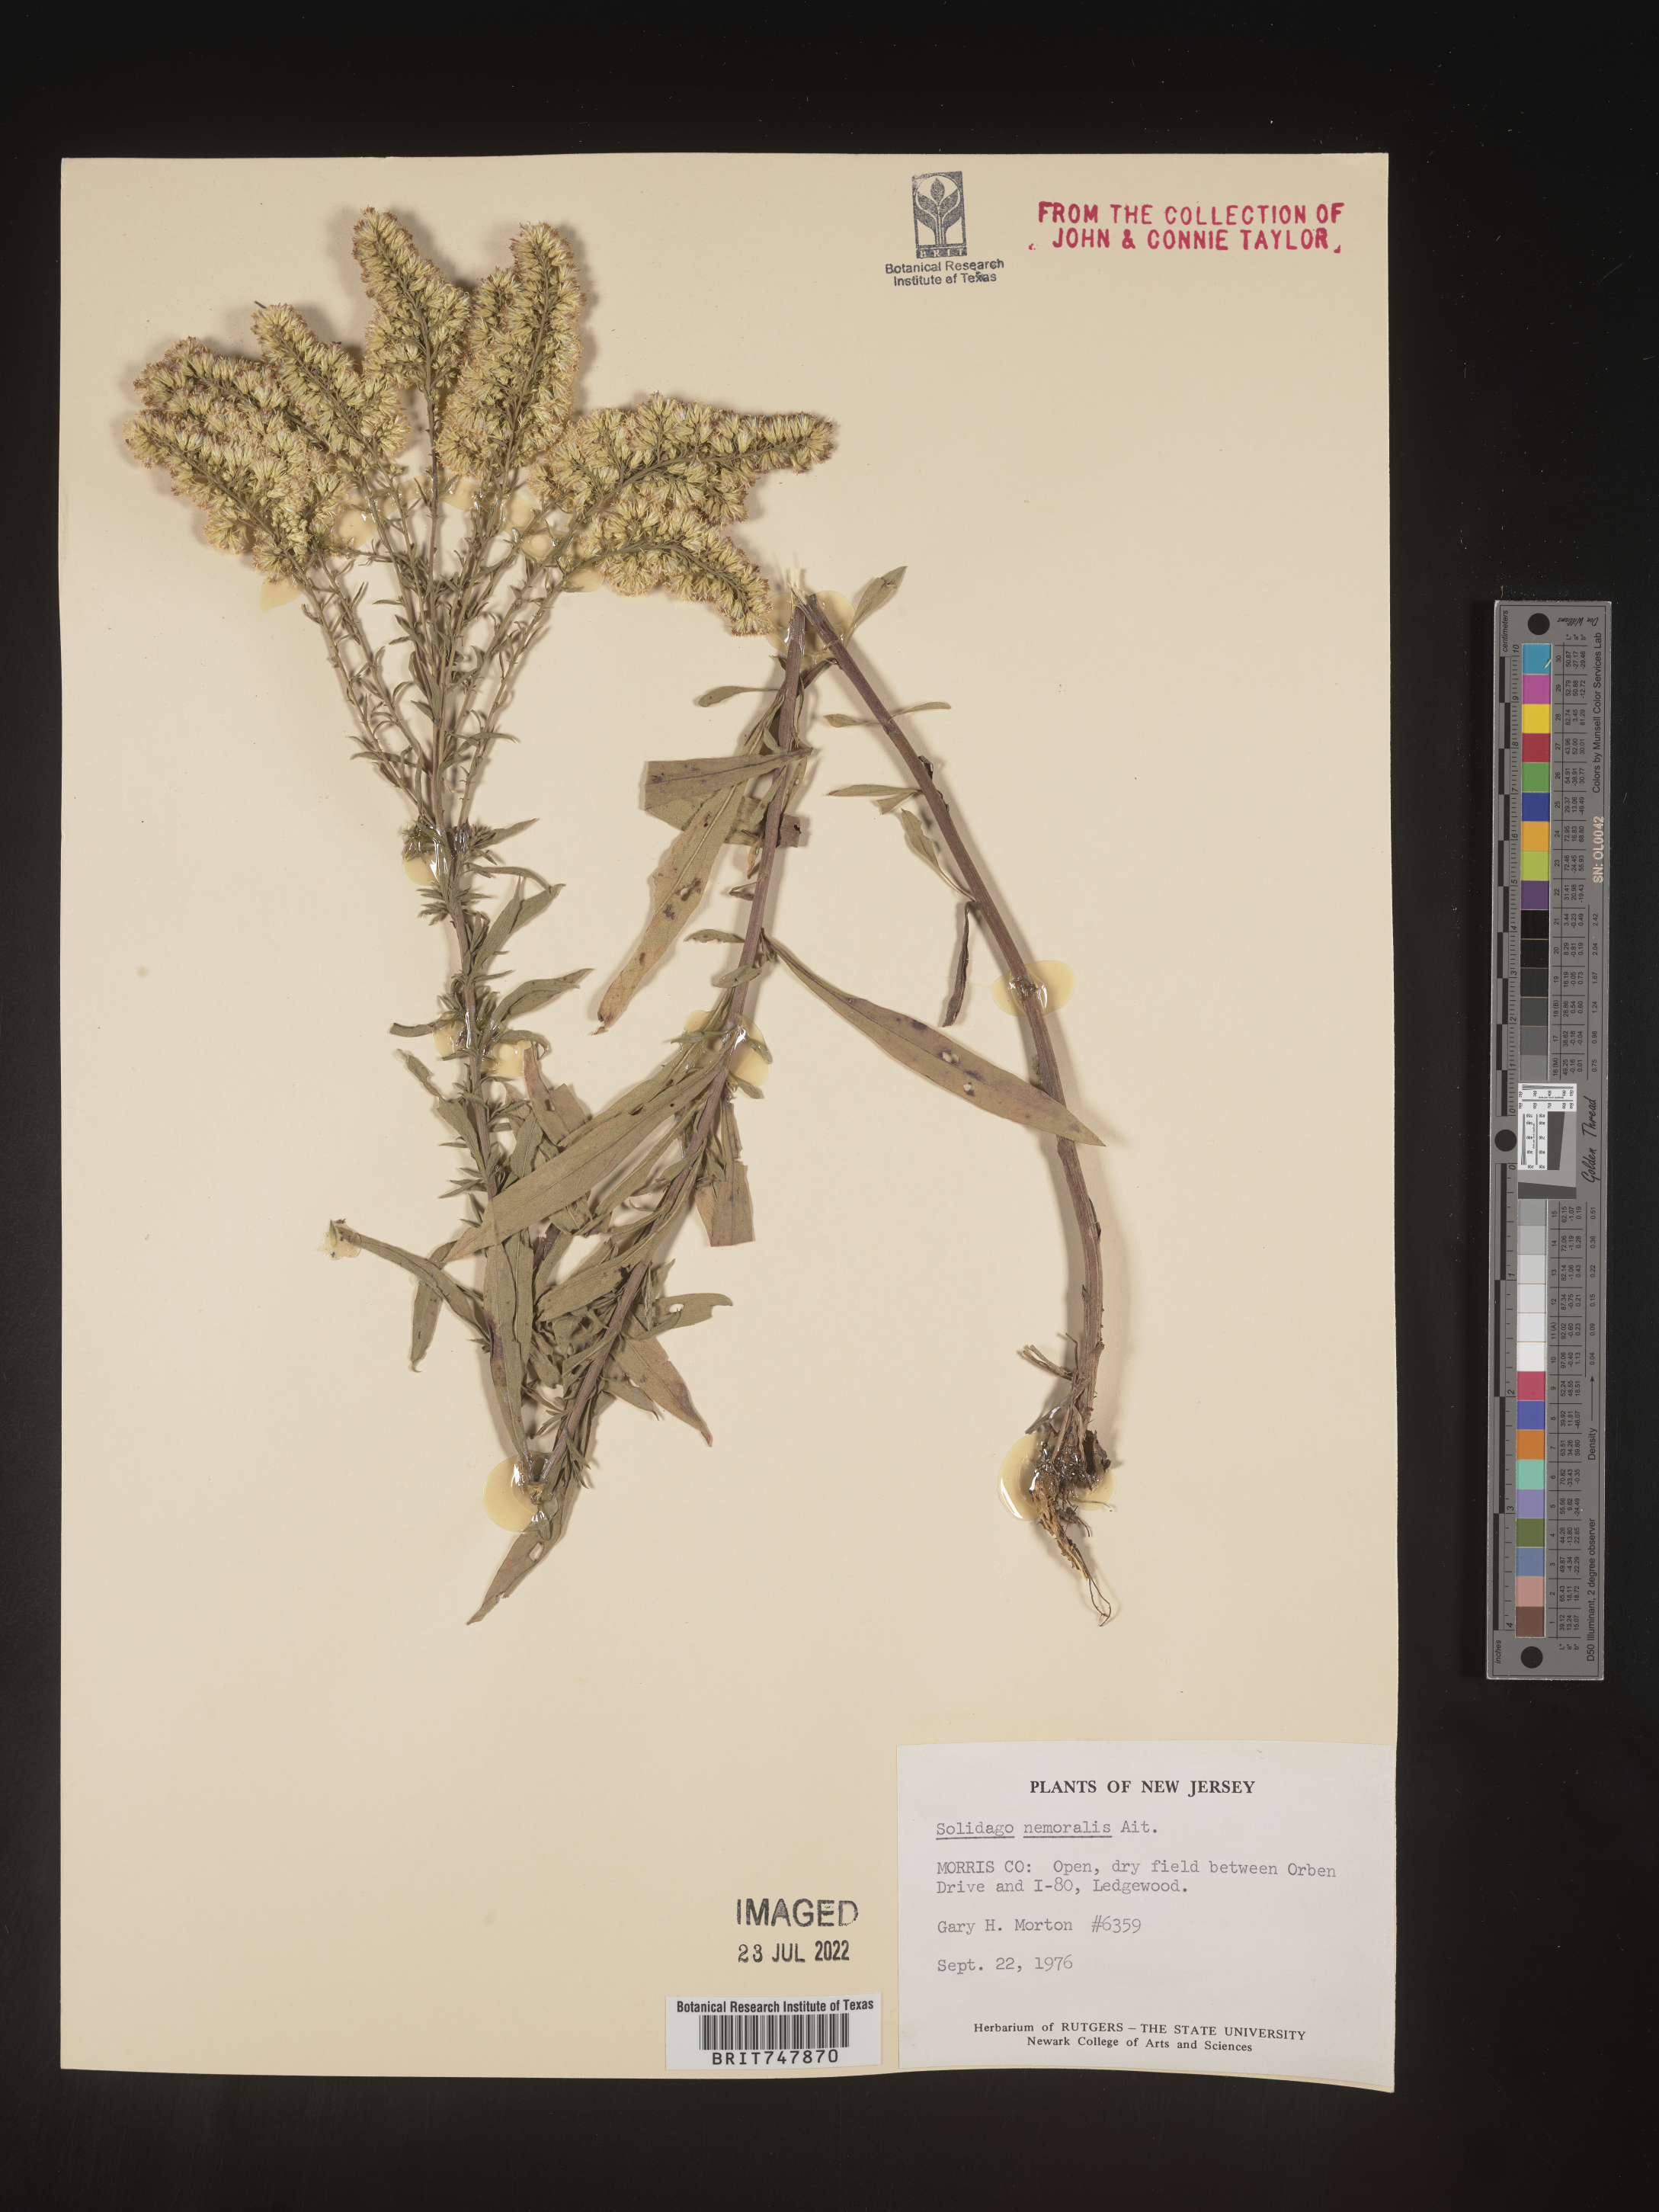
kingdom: Plantae
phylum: Tracheophyta
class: Magnoliopsida
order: Asterales
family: Asteraceae
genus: Solidago
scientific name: Solidago nemoralis
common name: Grey goldenrod
